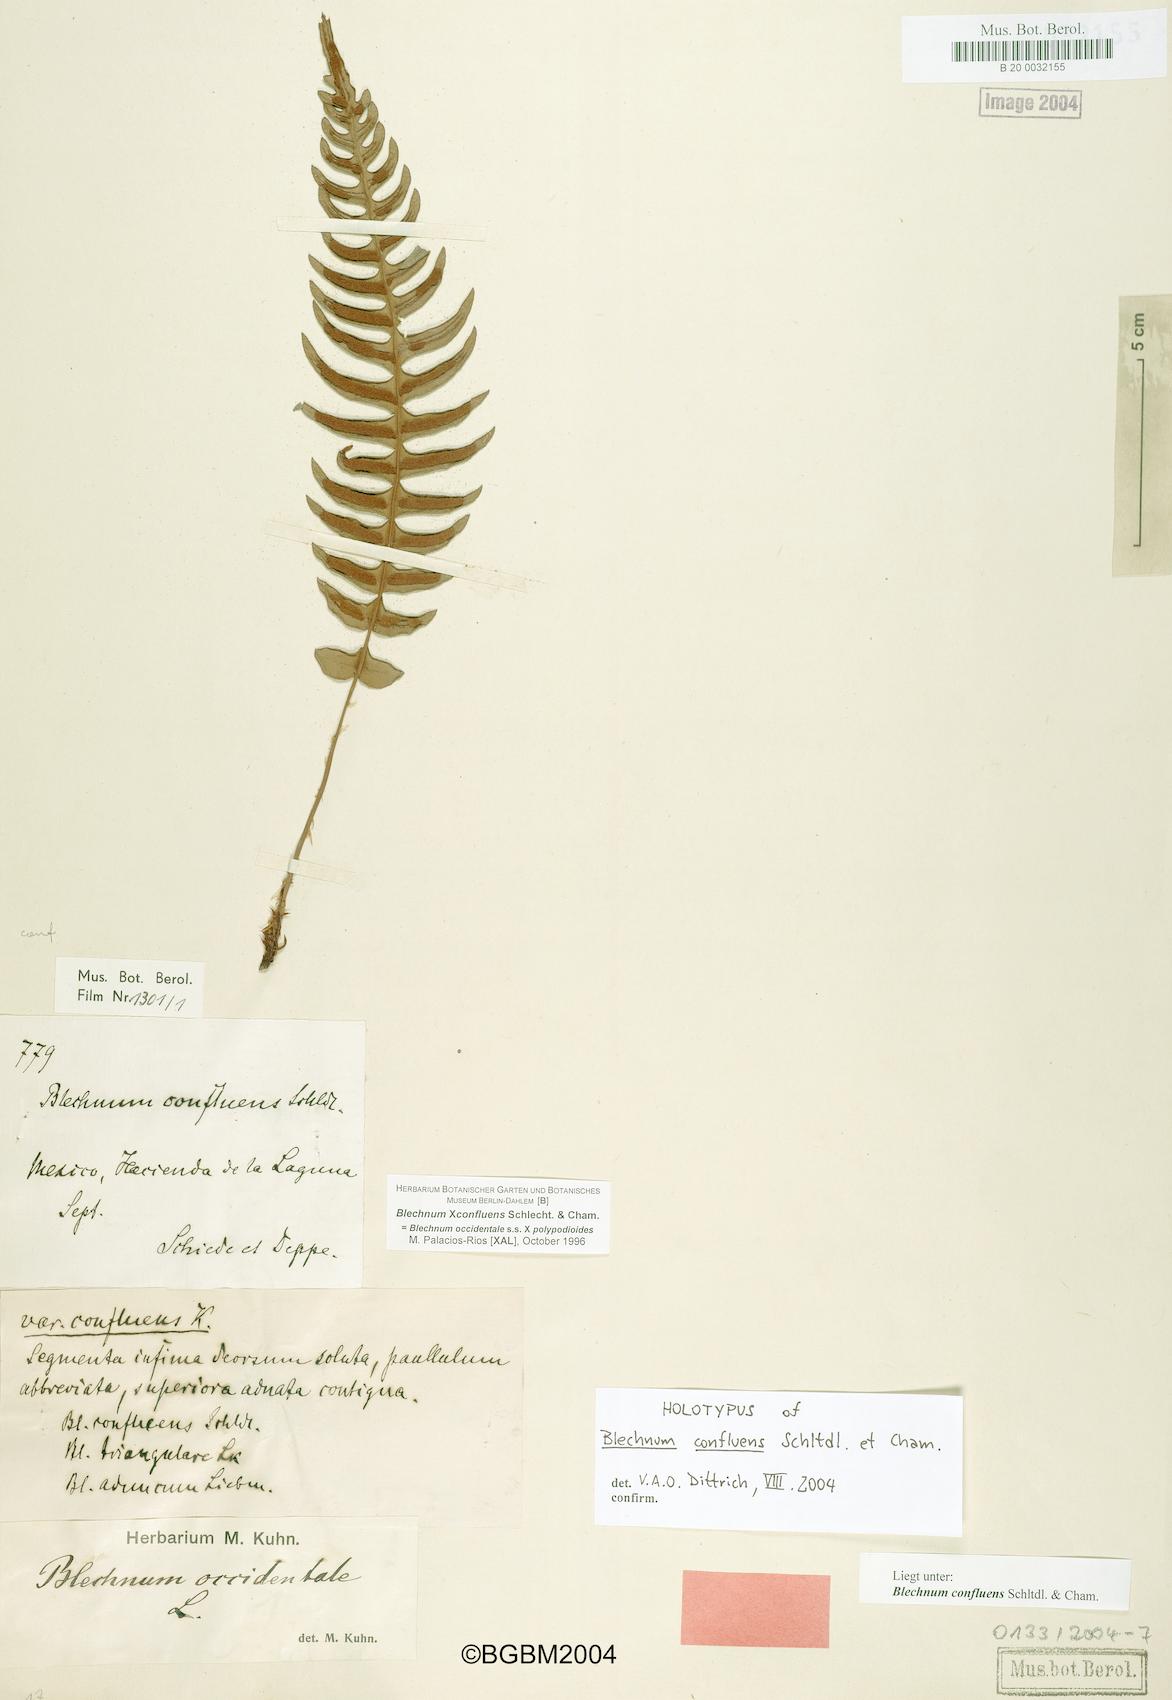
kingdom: Plantae
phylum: Tracheophyta
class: Polypodiopsida
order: Polypodiales
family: Blechnaceae
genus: Blechnum
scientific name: Blechnum confluens
